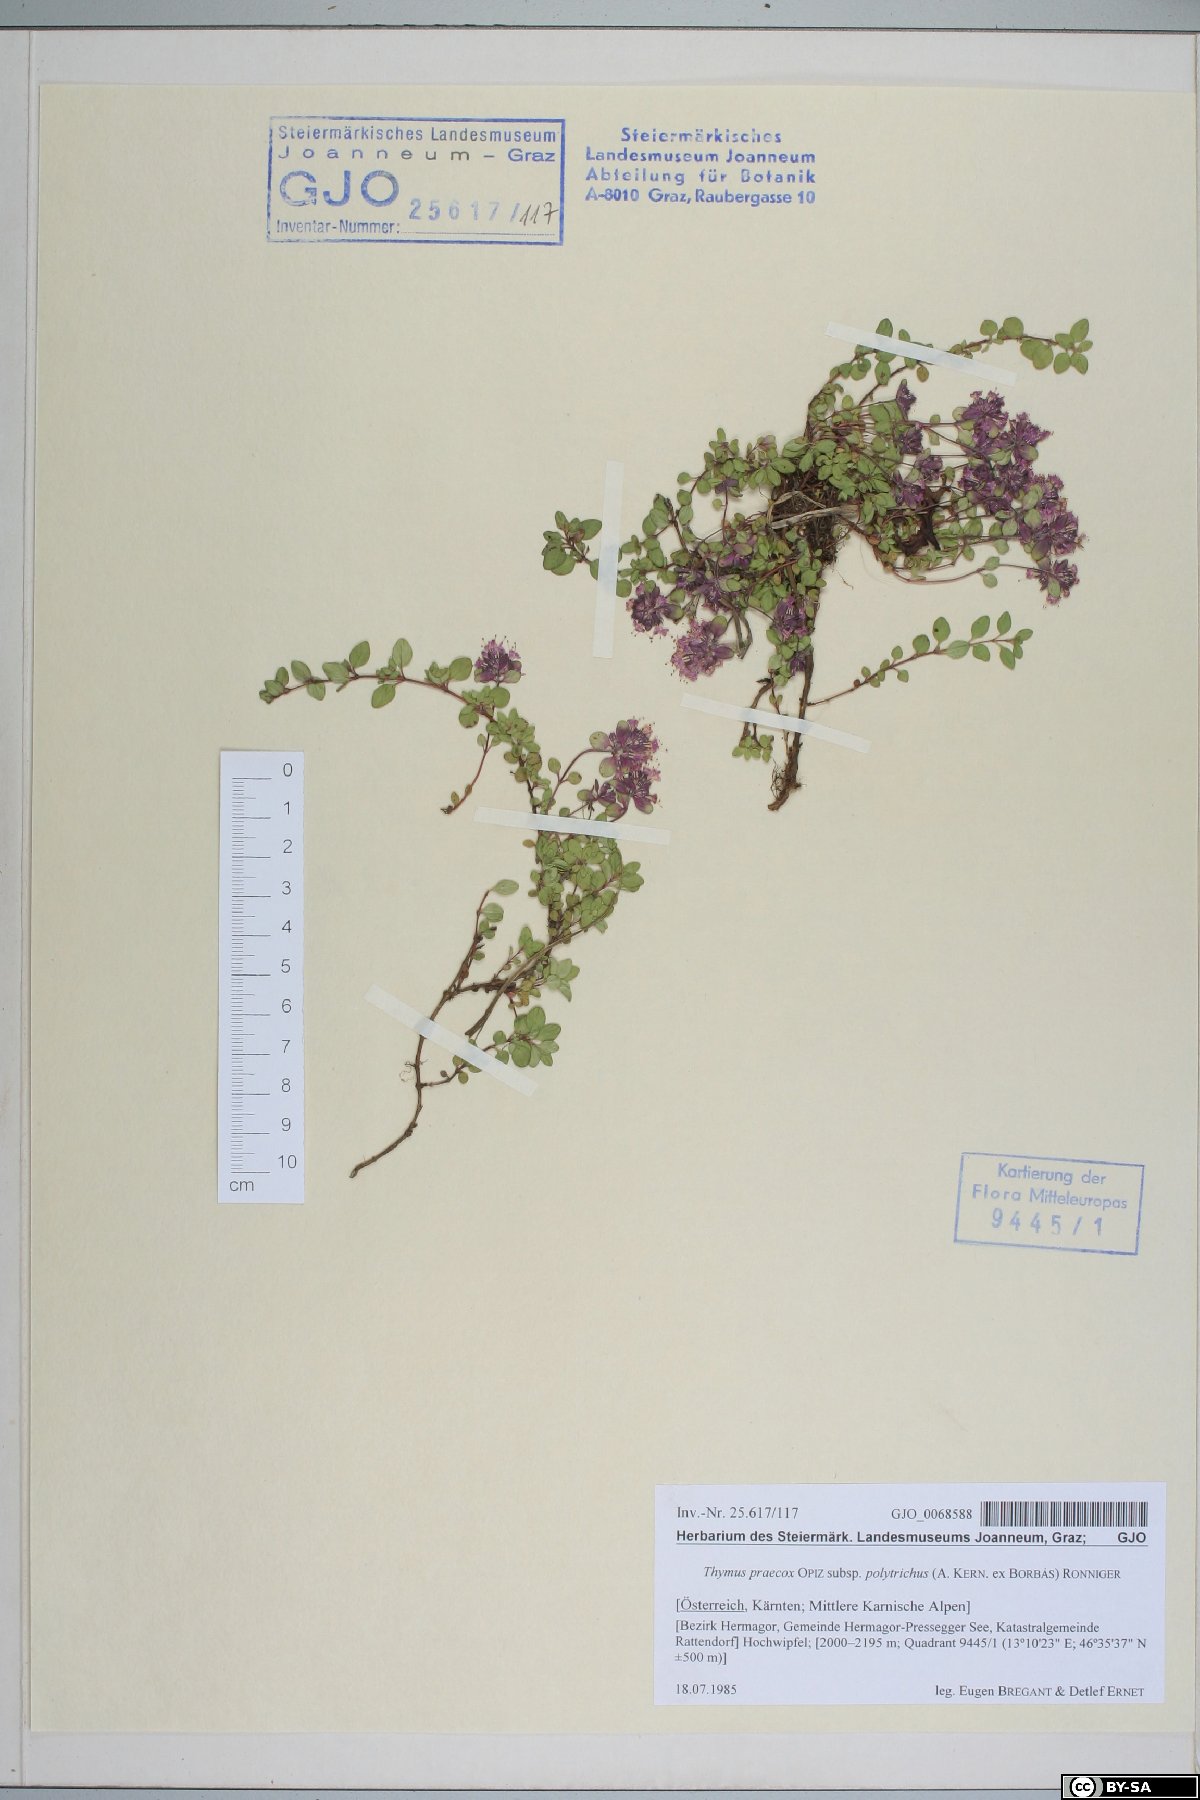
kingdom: Plantae
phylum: Tracheophyta
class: Magnoliopsida
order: Lamiales
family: Lamiaceae
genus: Thymus
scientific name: Thymus praecox
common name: Wild thyme
